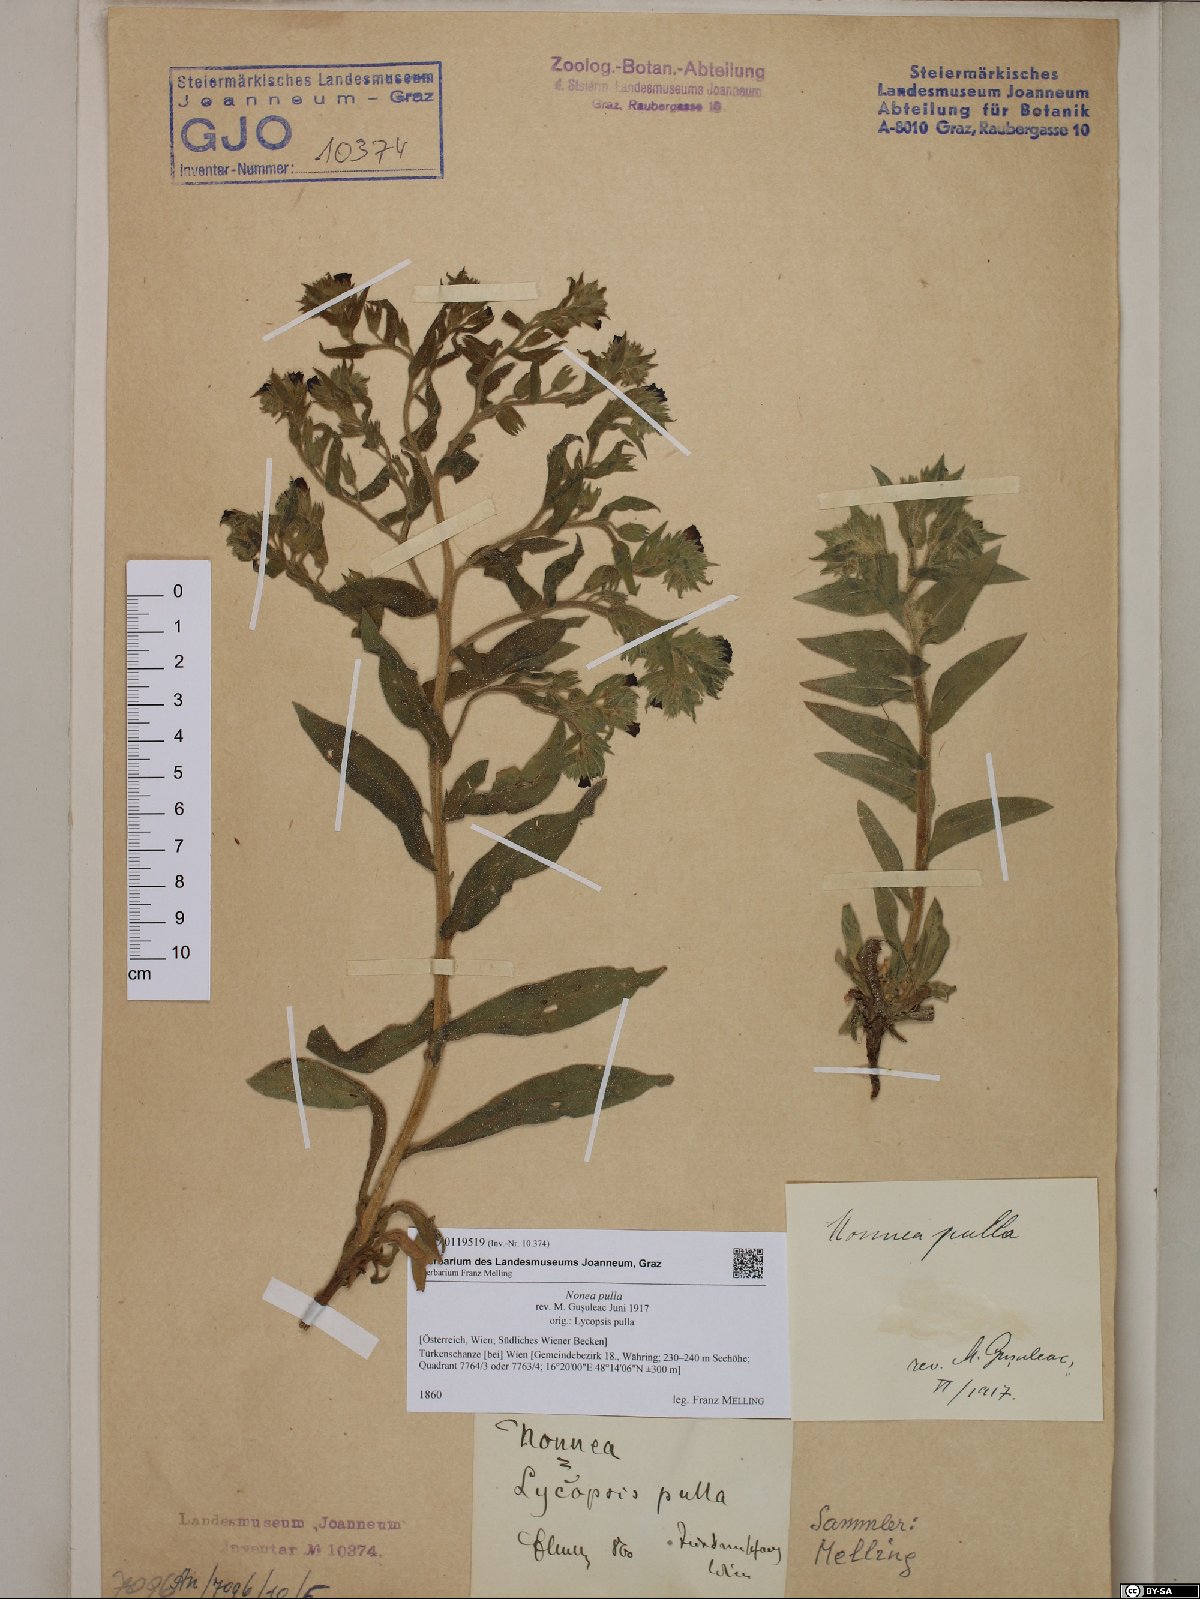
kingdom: Plantae
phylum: Tracheophyta
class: Magnoliopsida
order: Boraginales
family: Boraginaceae
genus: Nonea
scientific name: Nonea pulla
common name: Brown nonea
